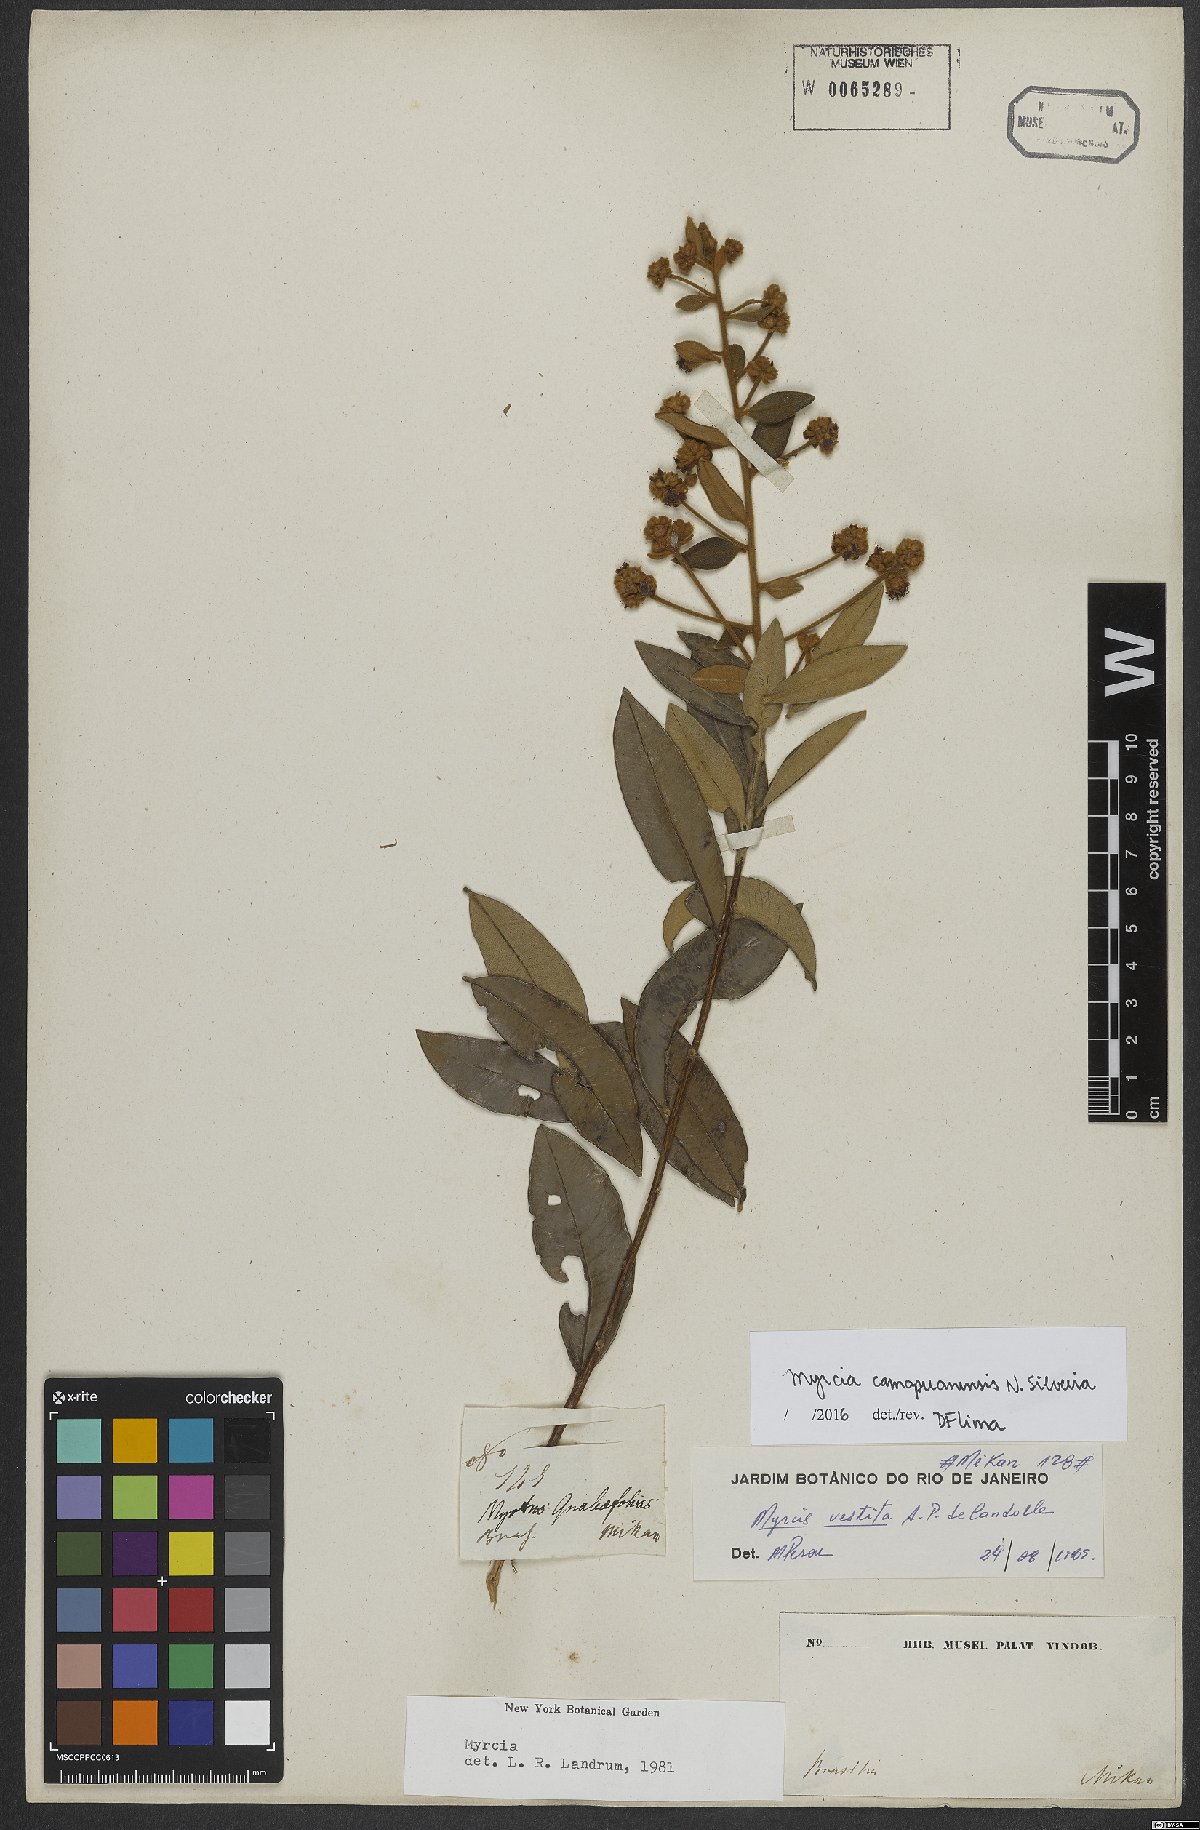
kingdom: Plantae
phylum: Tracheophyta
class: Magnoliopsida
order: Myrtales
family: Myrtaceae
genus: Myrcia
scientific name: Myrcia camapuanensis
